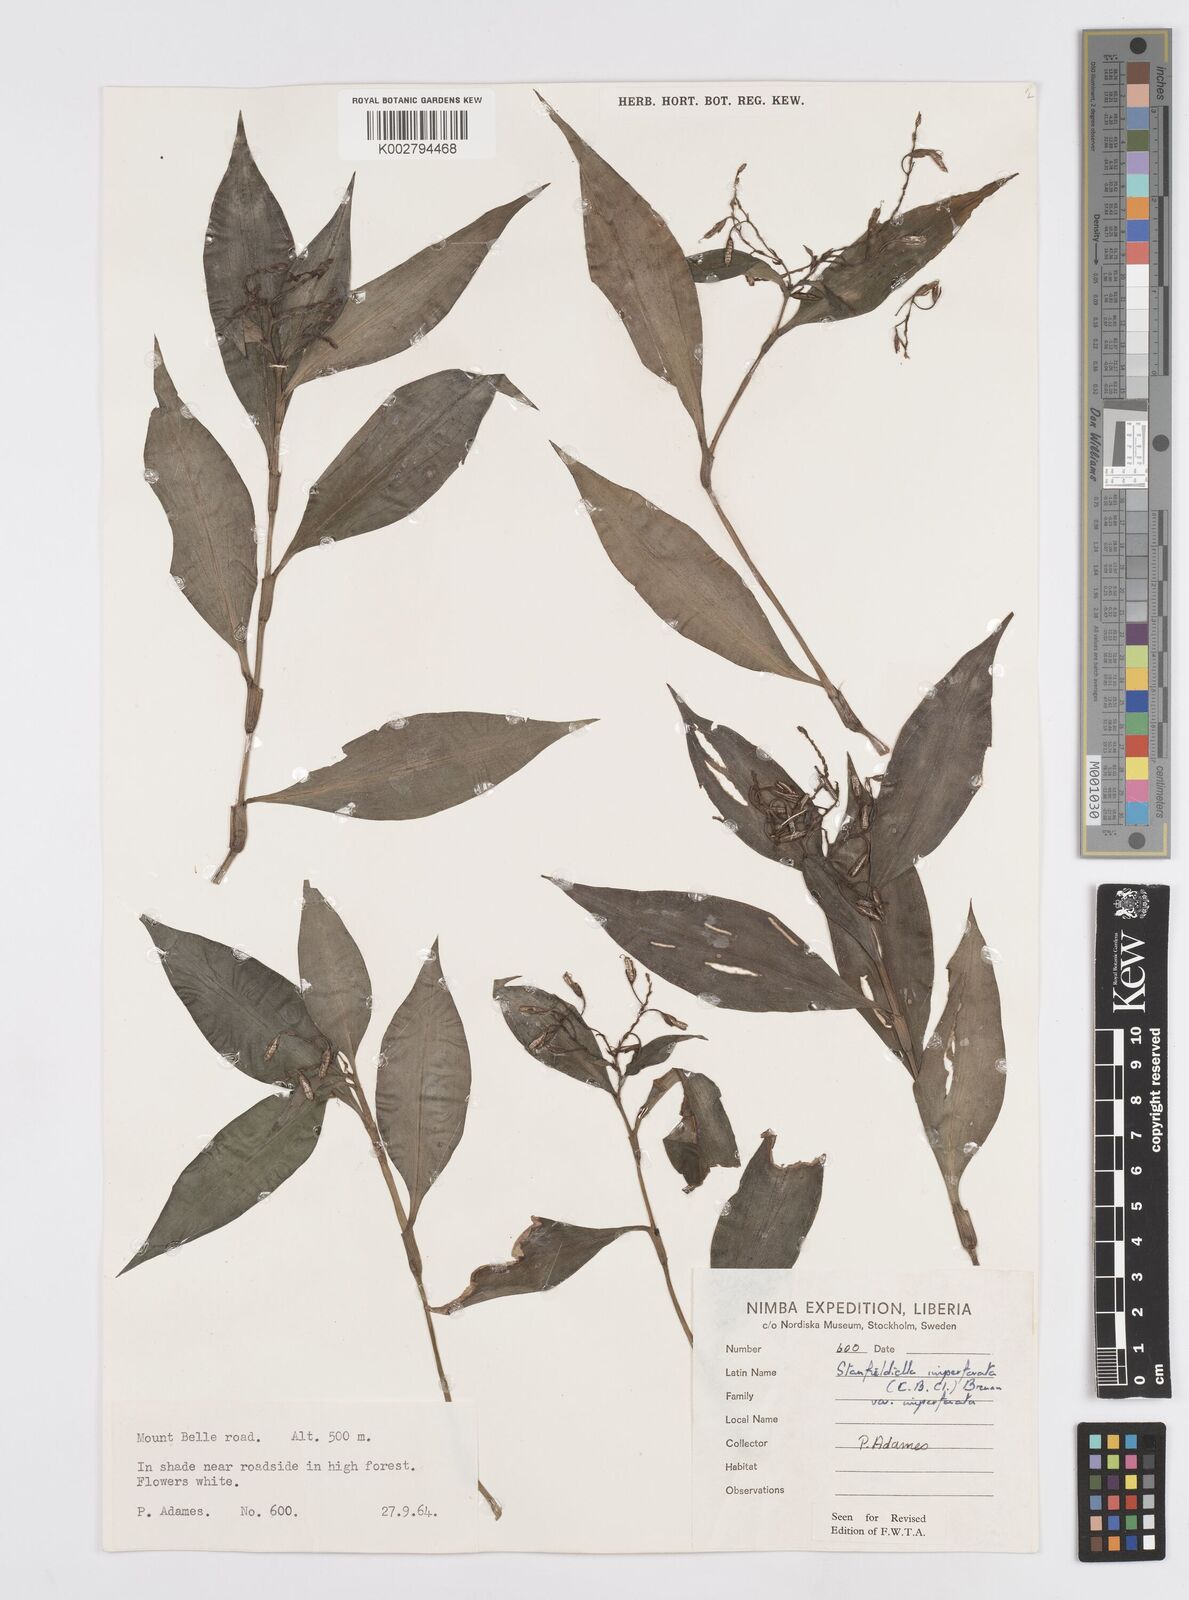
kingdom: Plantae
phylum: Tracheophyta
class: Liliopsida
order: Commelinales
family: Commelinaceae
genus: Stanfieldiella
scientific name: Stanfieldiella imperforata
